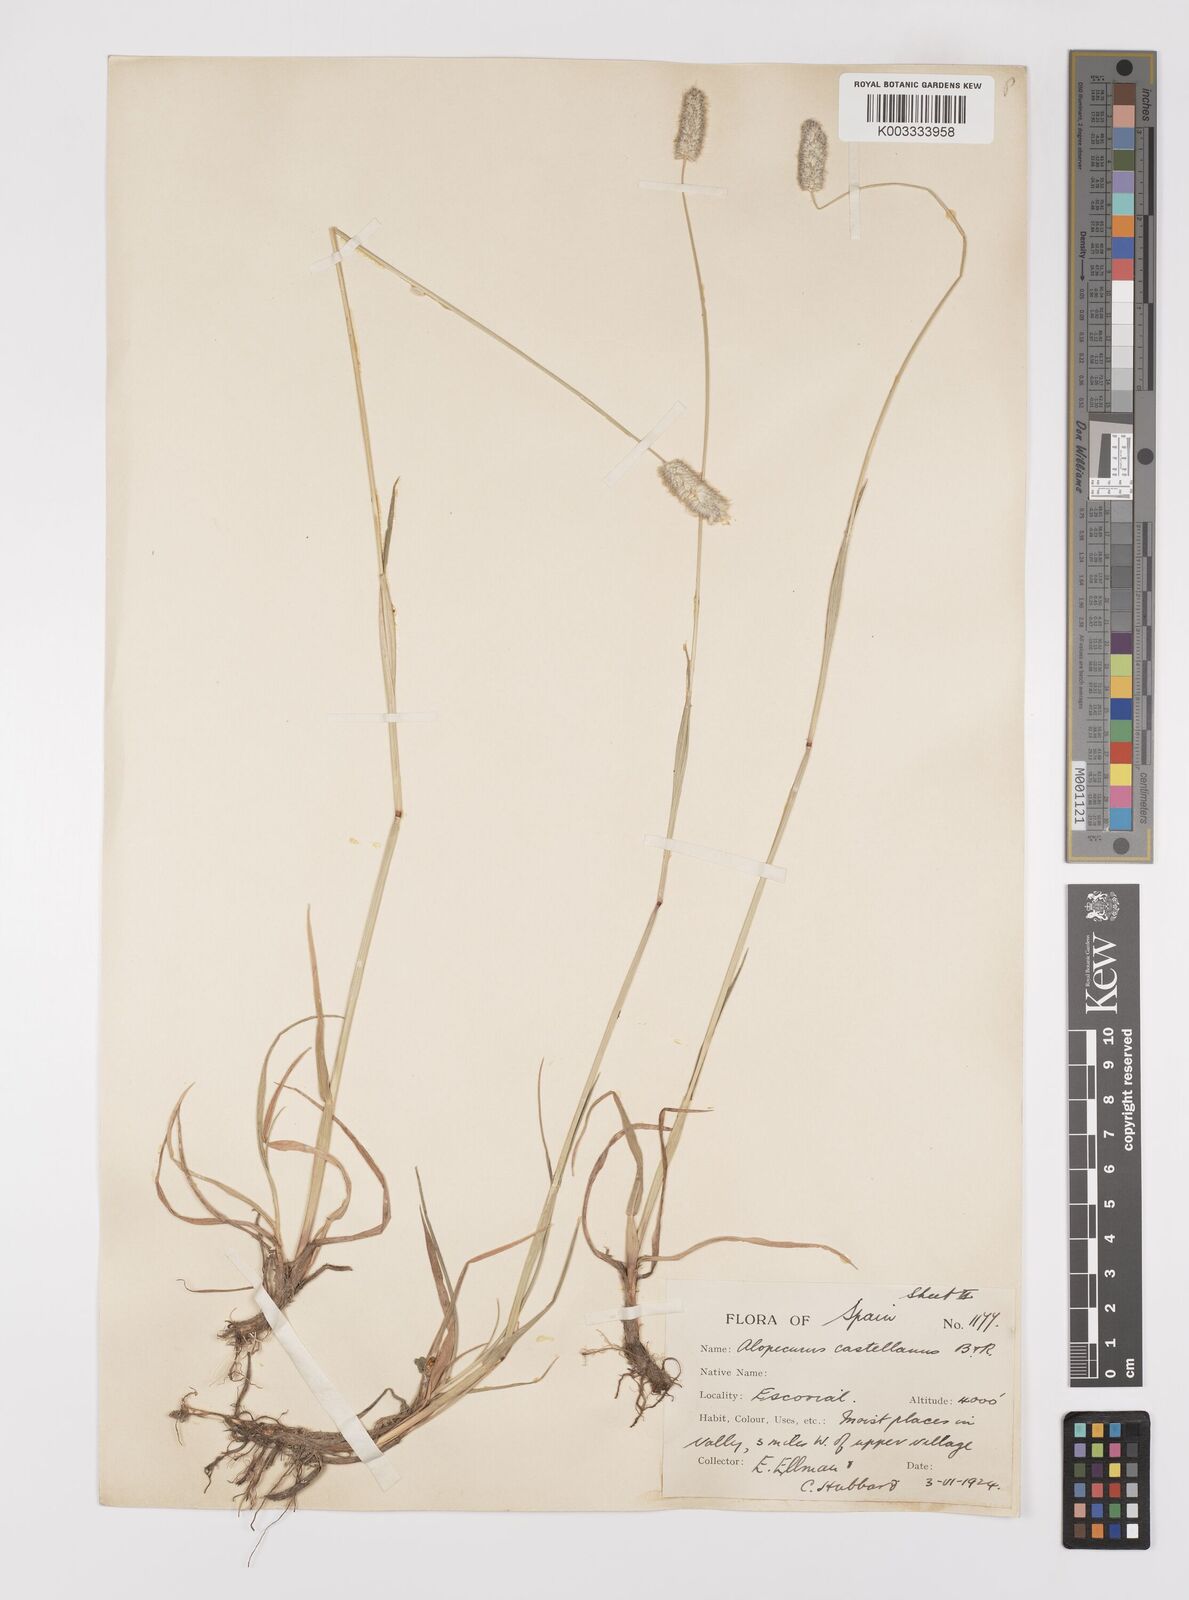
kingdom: Plantae
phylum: Tracheophyta
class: Liliopsida
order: Poales
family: Poaceae
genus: Alopecurus
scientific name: Alopecurus arundinaceus
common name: Creeping meadow foxtail
